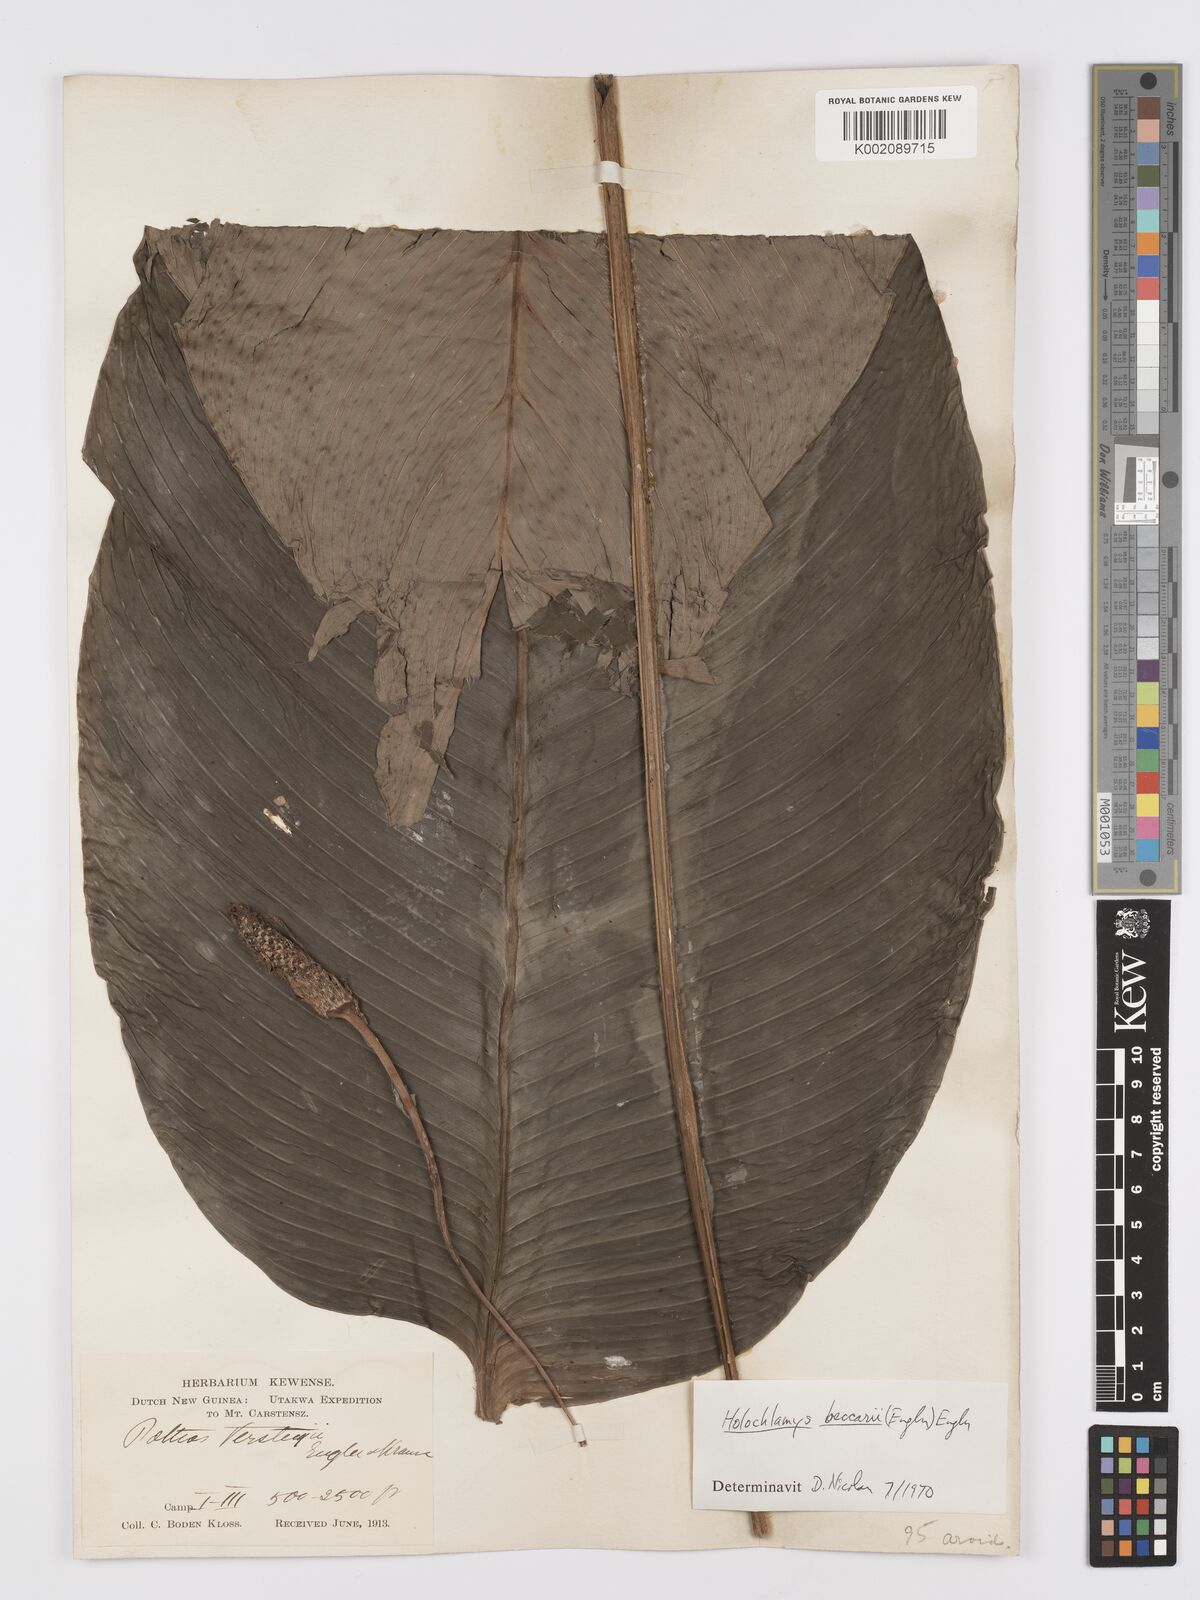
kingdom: Plantae
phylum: Tracheophyta
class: Liliopsida
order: Alismatales
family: Araceae
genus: Holochlamys
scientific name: Holochlamys beccarii
